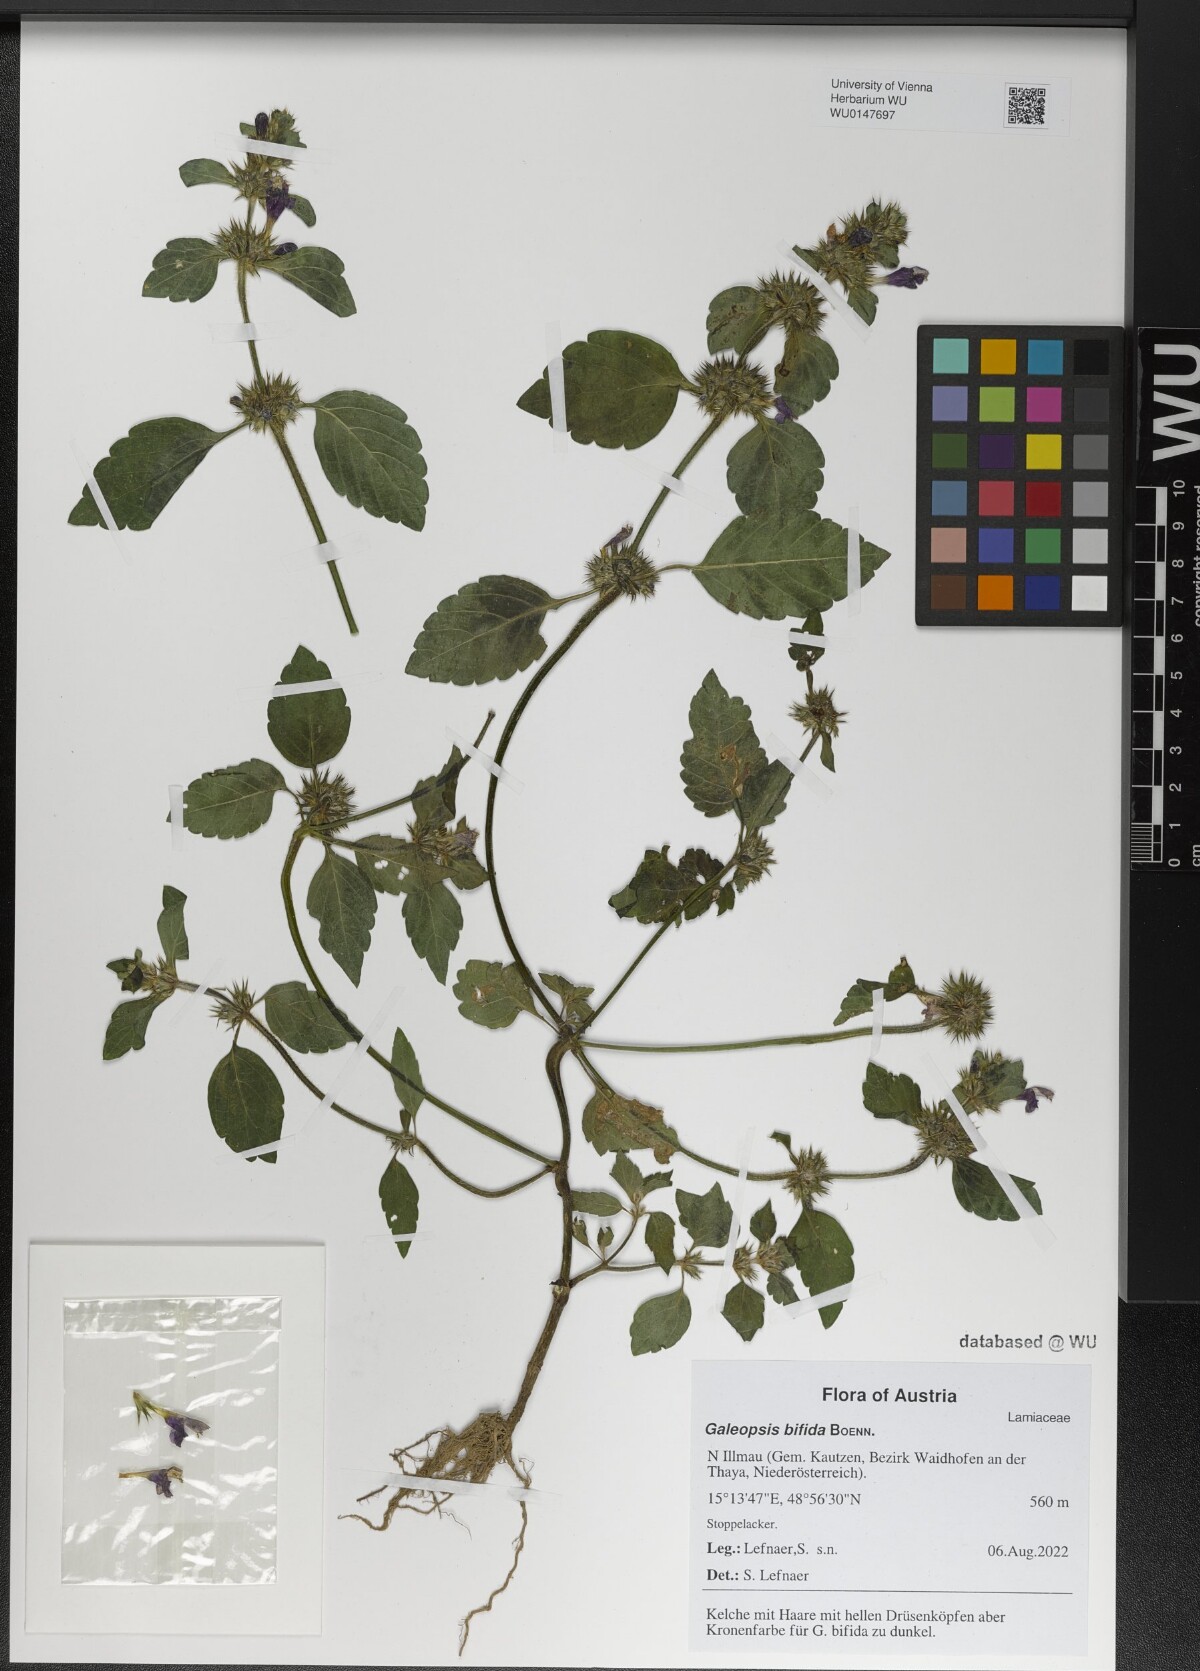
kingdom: Plantae
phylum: Tracheophyta
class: Magnoliopsida
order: Lamiales
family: Lamiaceae
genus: Galeopsis
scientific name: Galeopsis bifida
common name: Bifid hemp-nettle
